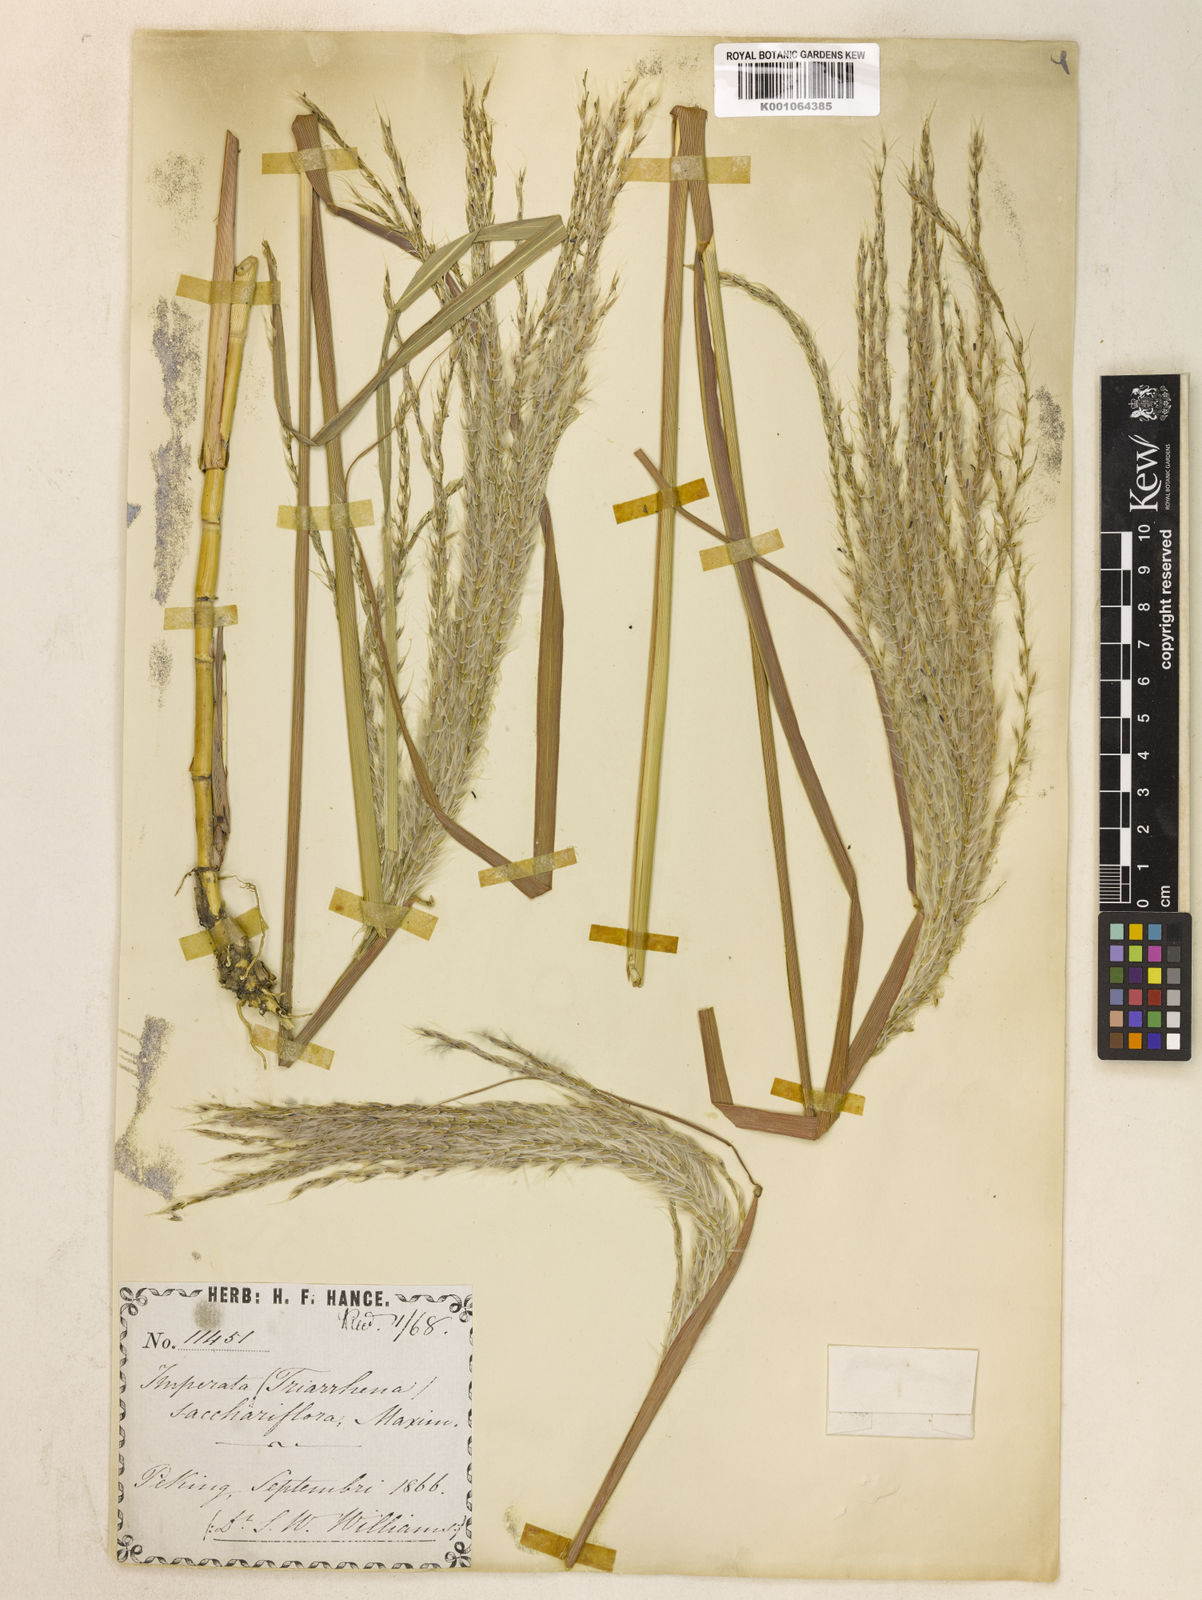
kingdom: Plantae
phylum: Tracheophyta
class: Liliopsida
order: Poales
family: Poaceae
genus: Miscanthus
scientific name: Miscanthus
